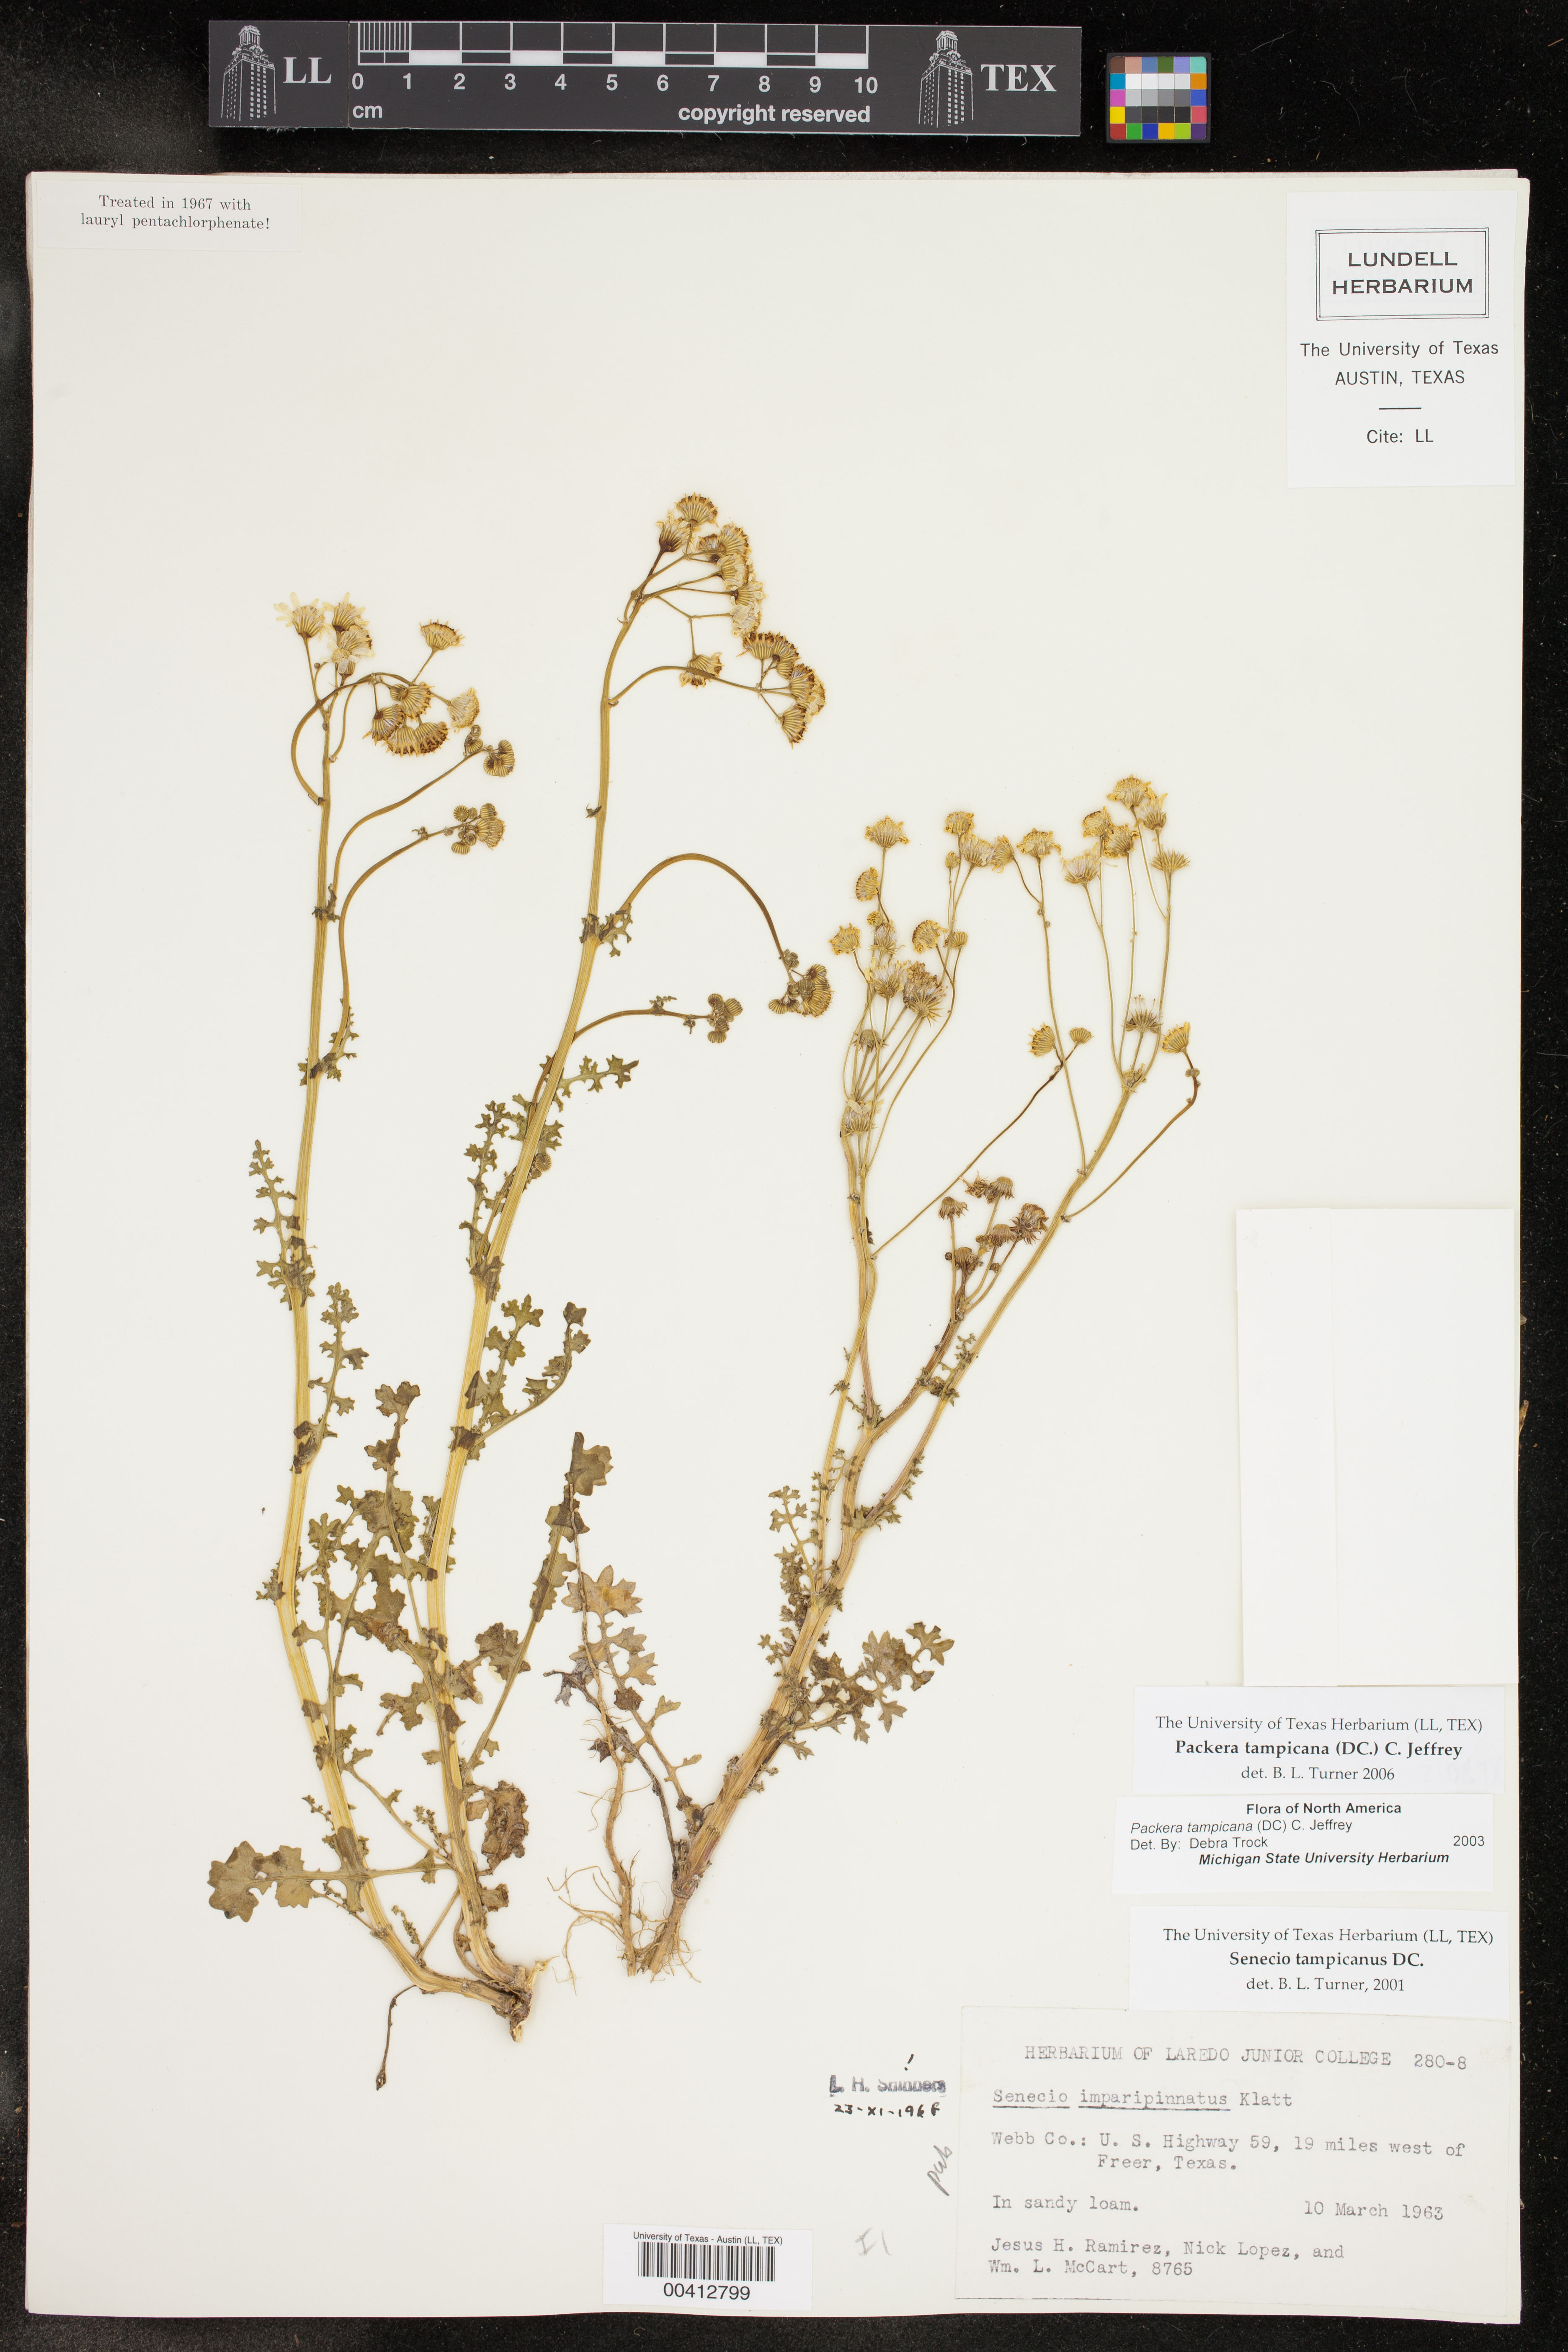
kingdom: Plantae
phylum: Tracheophyta
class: Magnoliopsida
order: Asterales
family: Asteraceae
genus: Packera
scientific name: Packera tampicana
